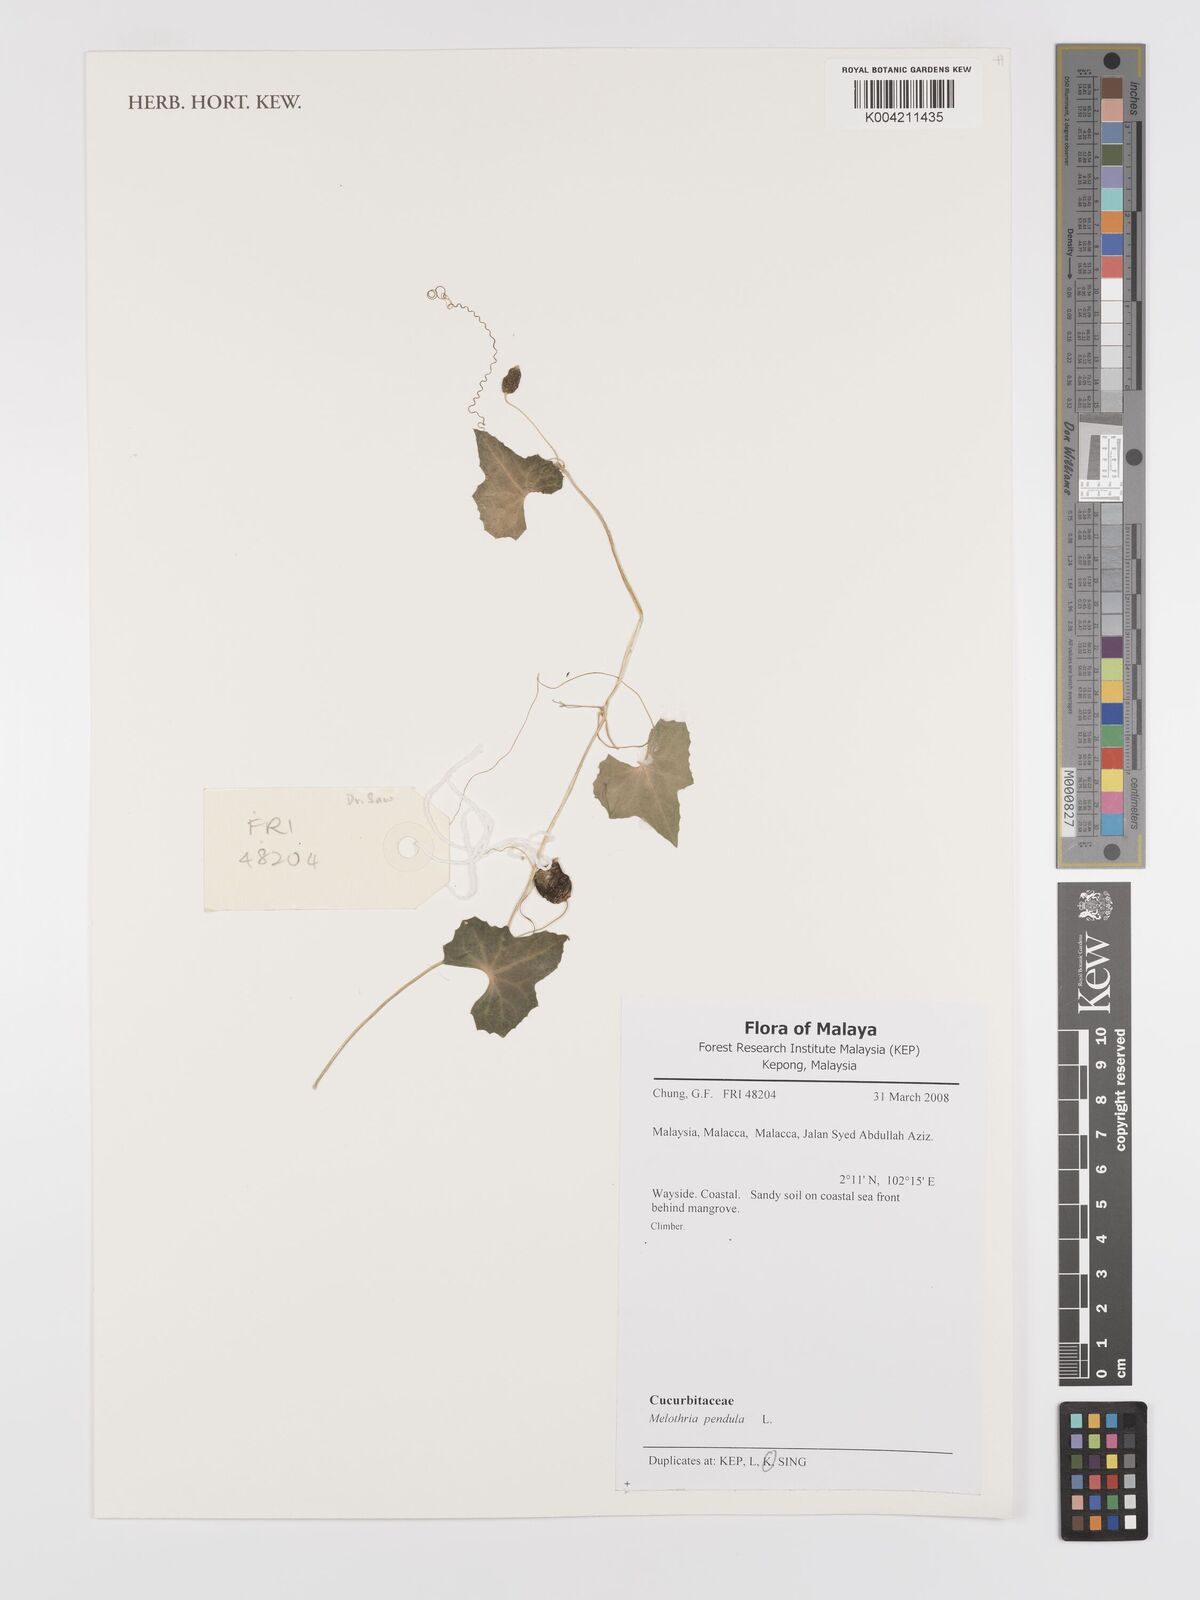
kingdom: Plantae
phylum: Tracheophyta
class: Magnoliopsida
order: Cucurbitales
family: Cucurbitaceae
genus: Melothria
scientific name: Melothria pendula
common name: Creeping-cucumber
